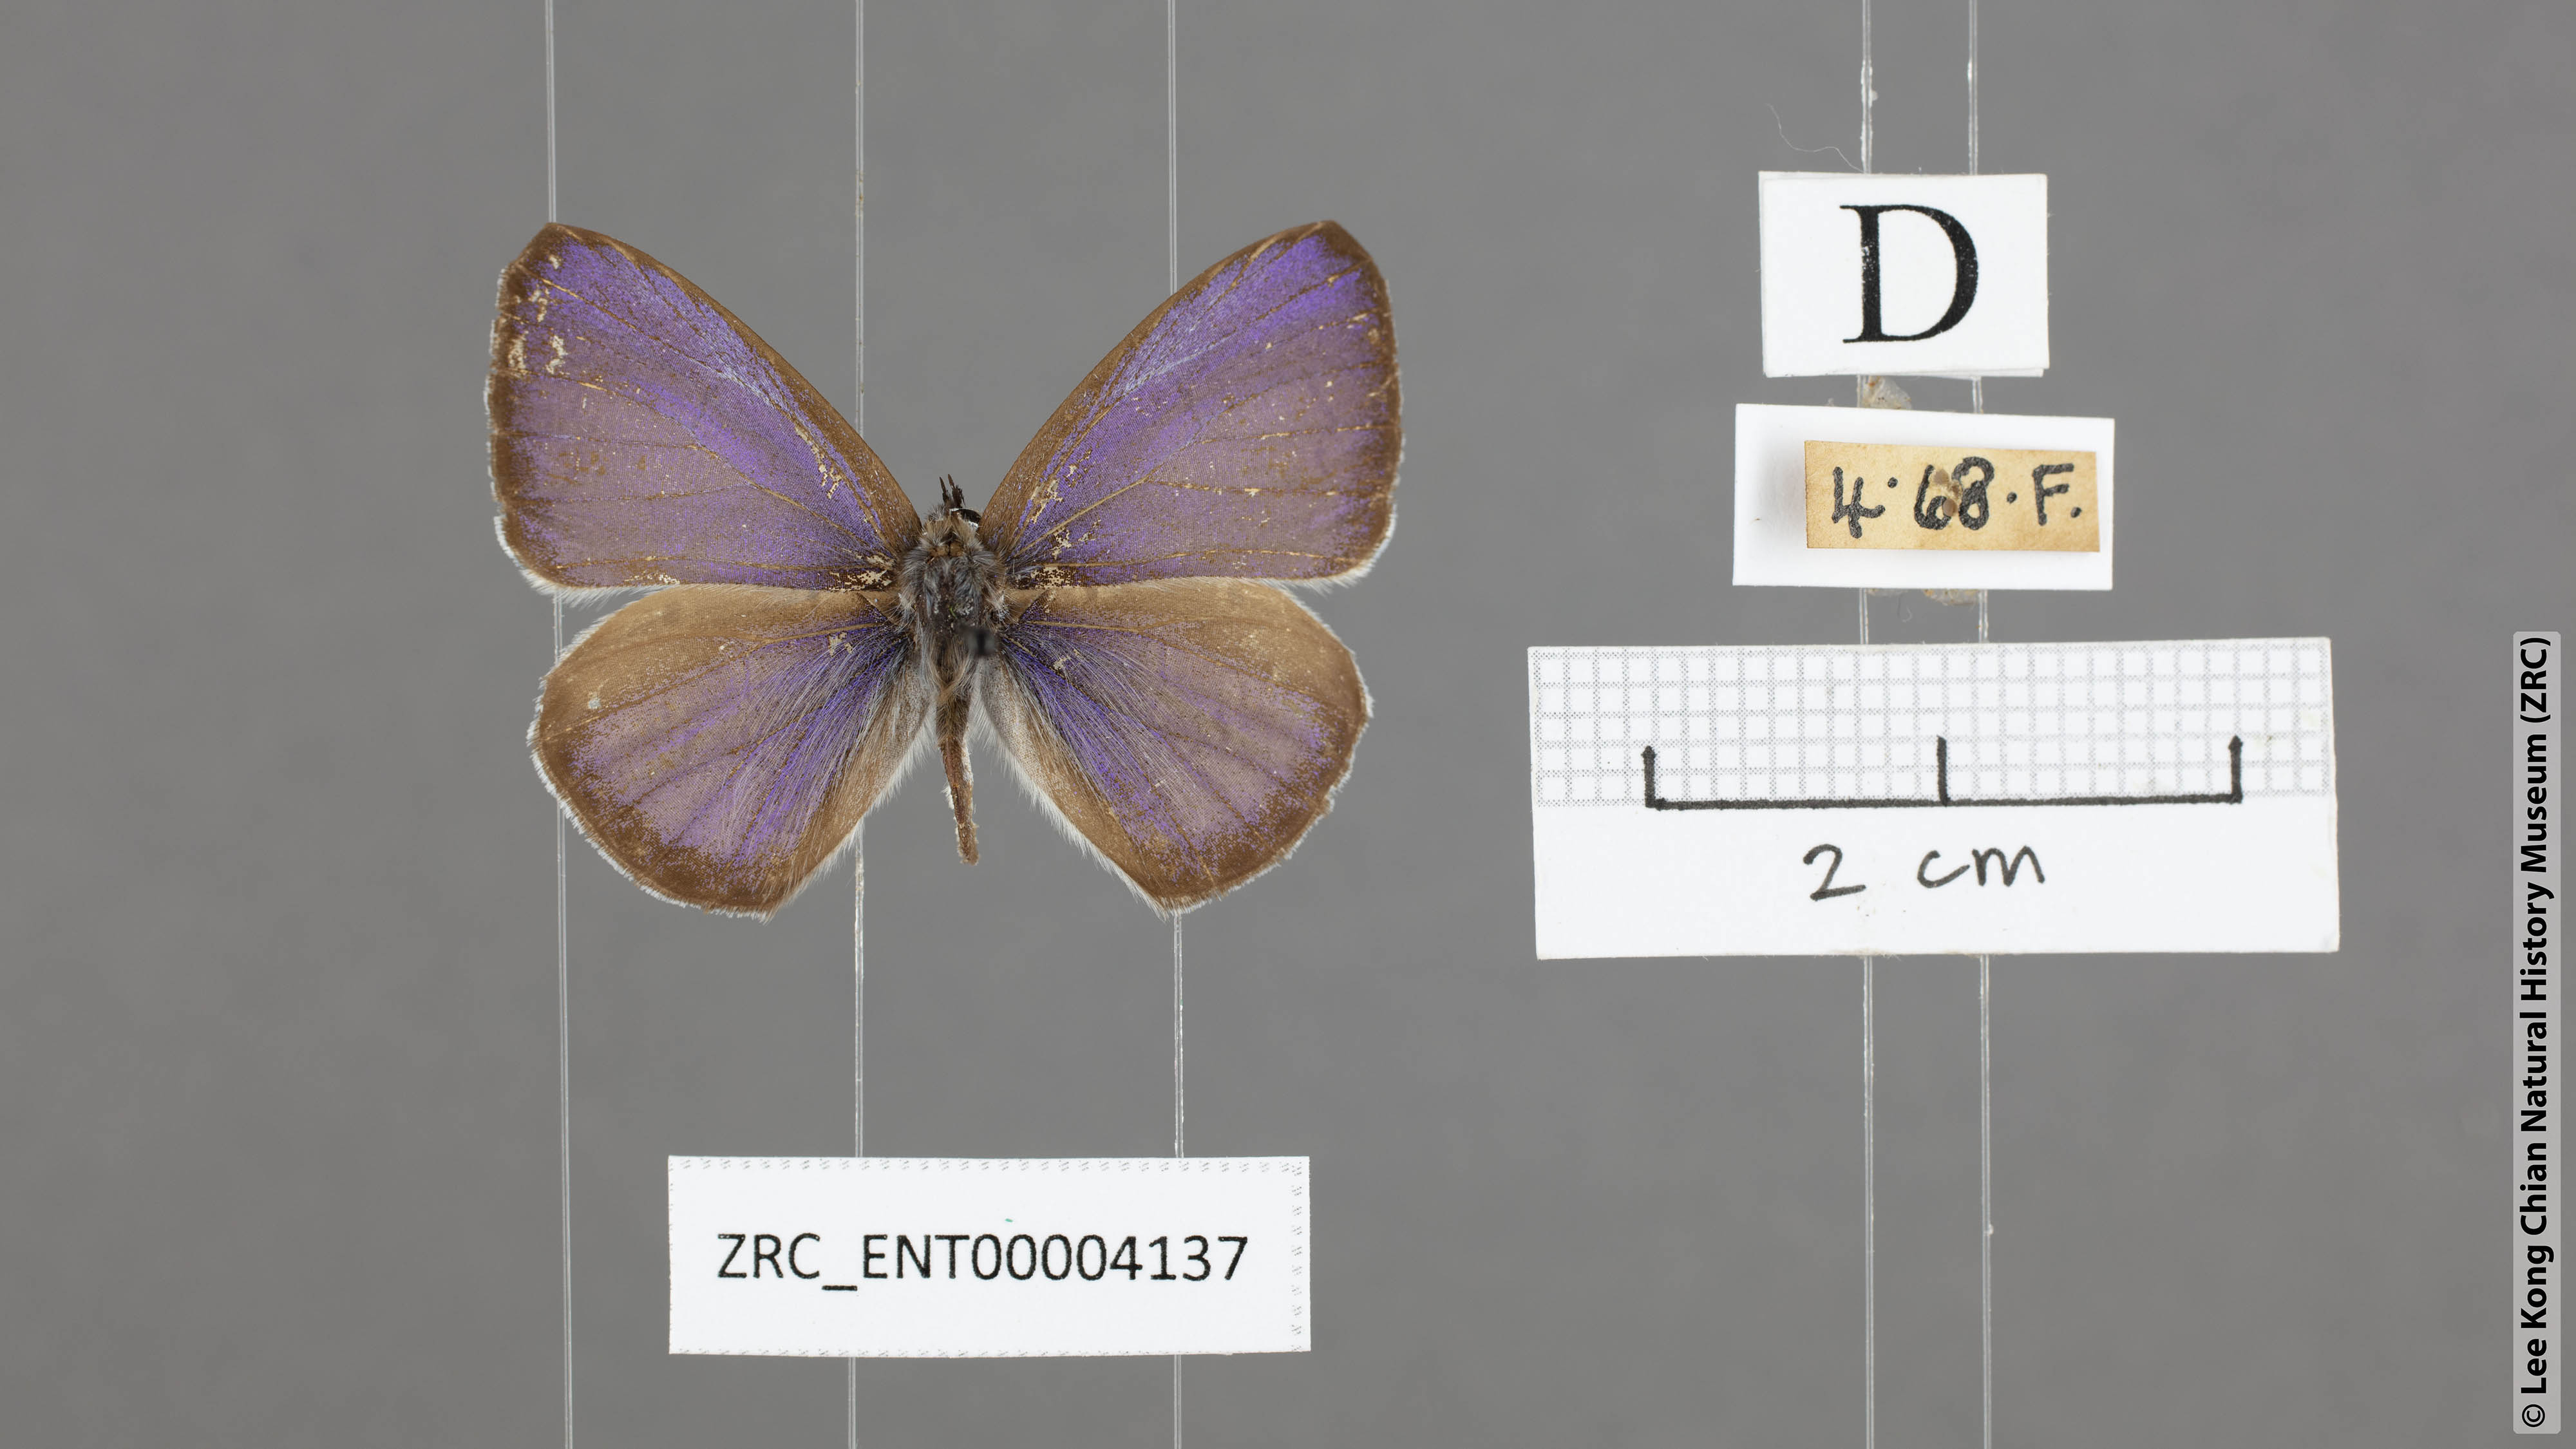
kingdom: Animalia
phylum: Arthropoda
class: Insecta
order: Lepidoptera
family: Lycaenidae
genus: Celastrina
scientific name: Celastrina lavendularis
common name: Plain hedge blue
